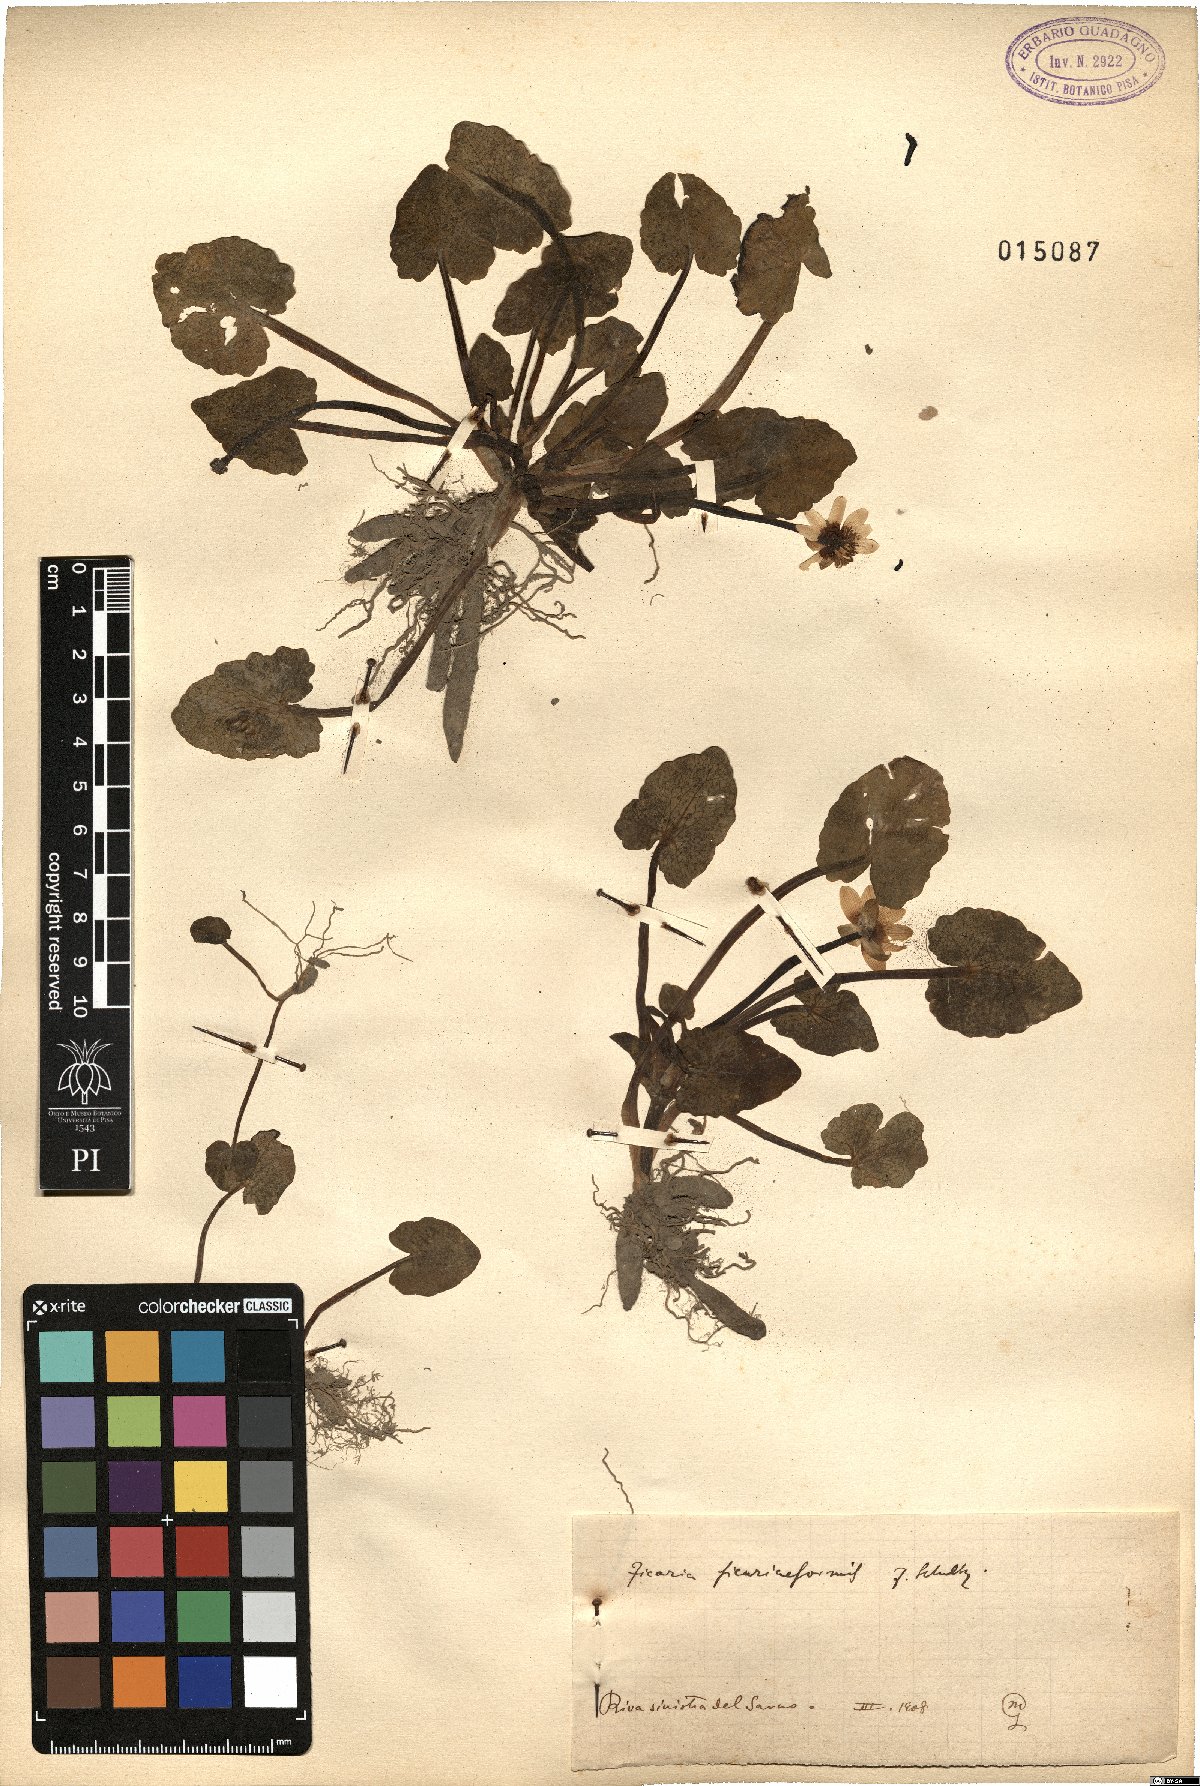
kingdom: Plantae
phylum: Tracheophyta
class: Magnoliopsida
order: Ranunculales
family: Ranunculaceae
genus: Ficaria
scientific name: Ficaria grandiflora
